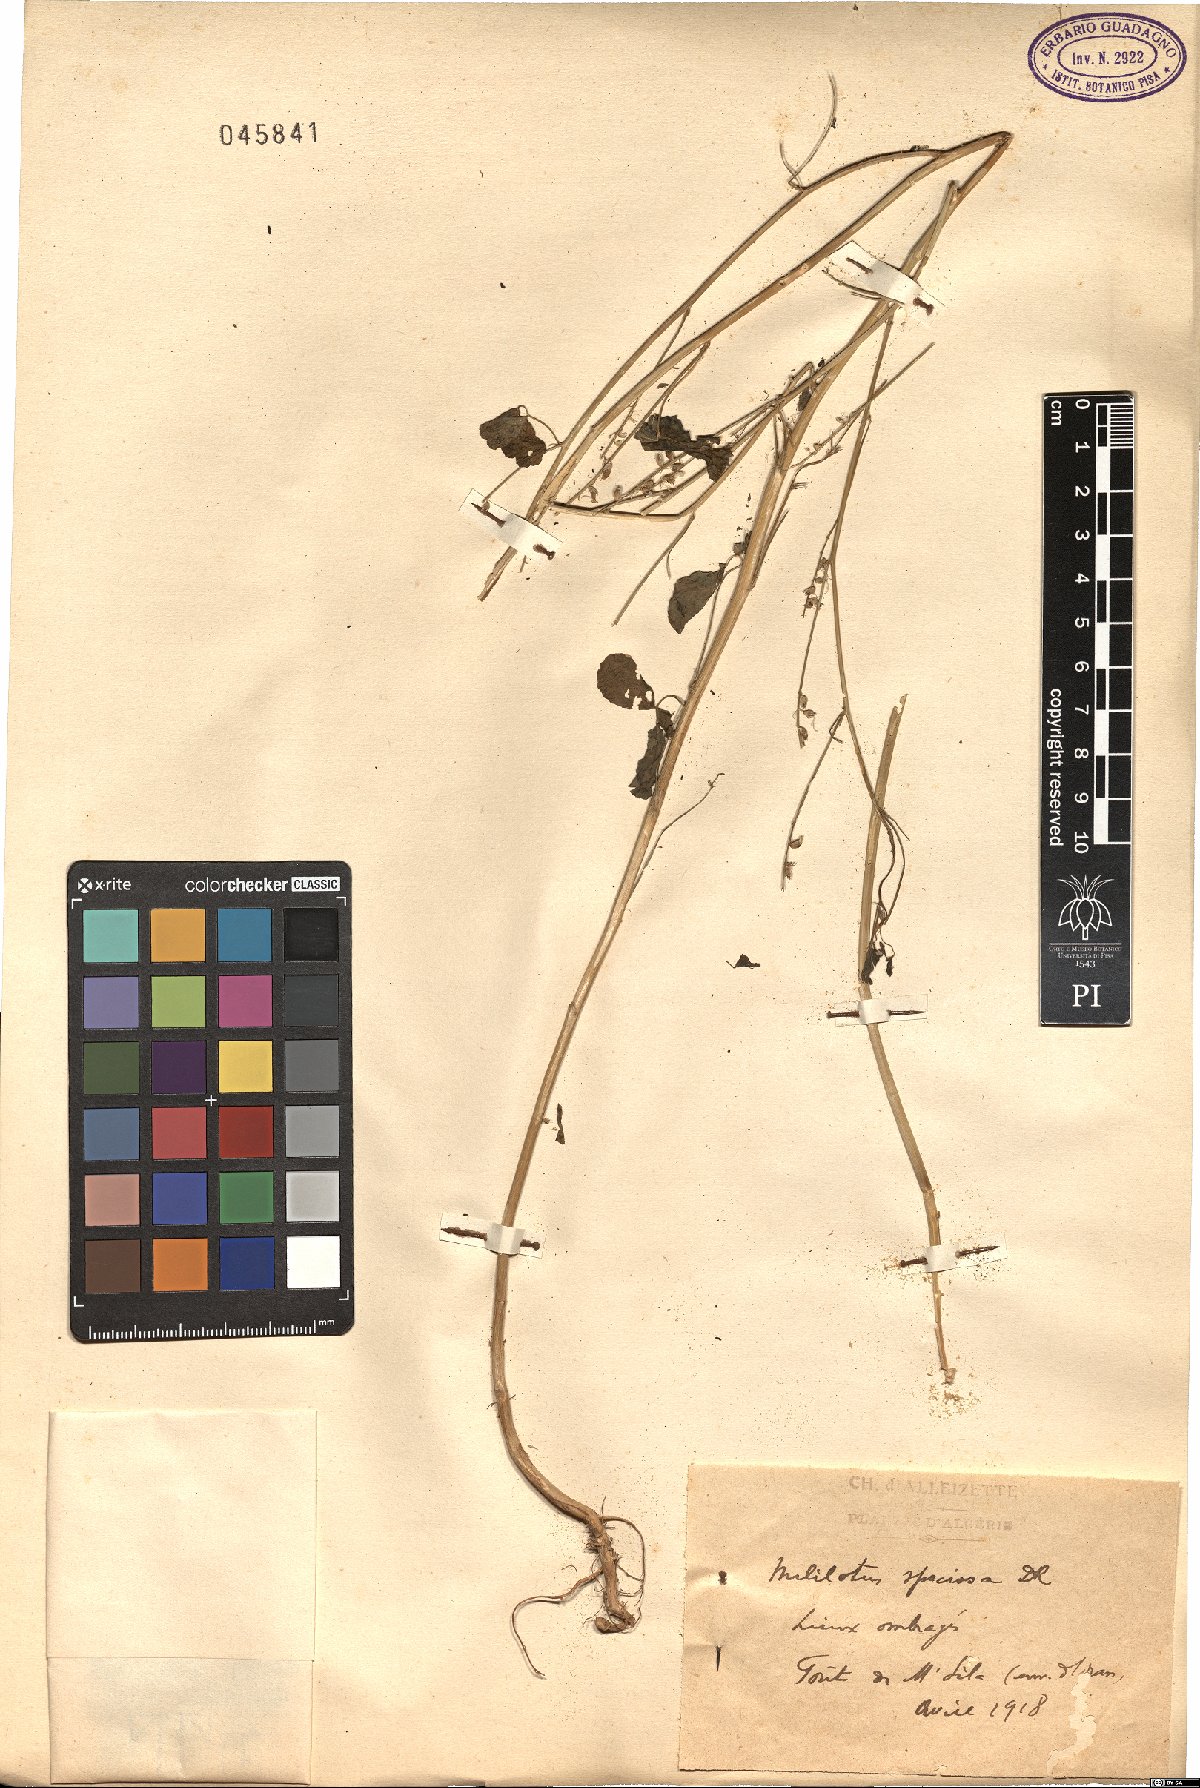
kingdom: Plantae
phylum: Tracheophyta
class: Magnoliopsida
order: Fabales
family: Fabaceae
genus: Melilotus
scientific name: Melilotus speciosus
